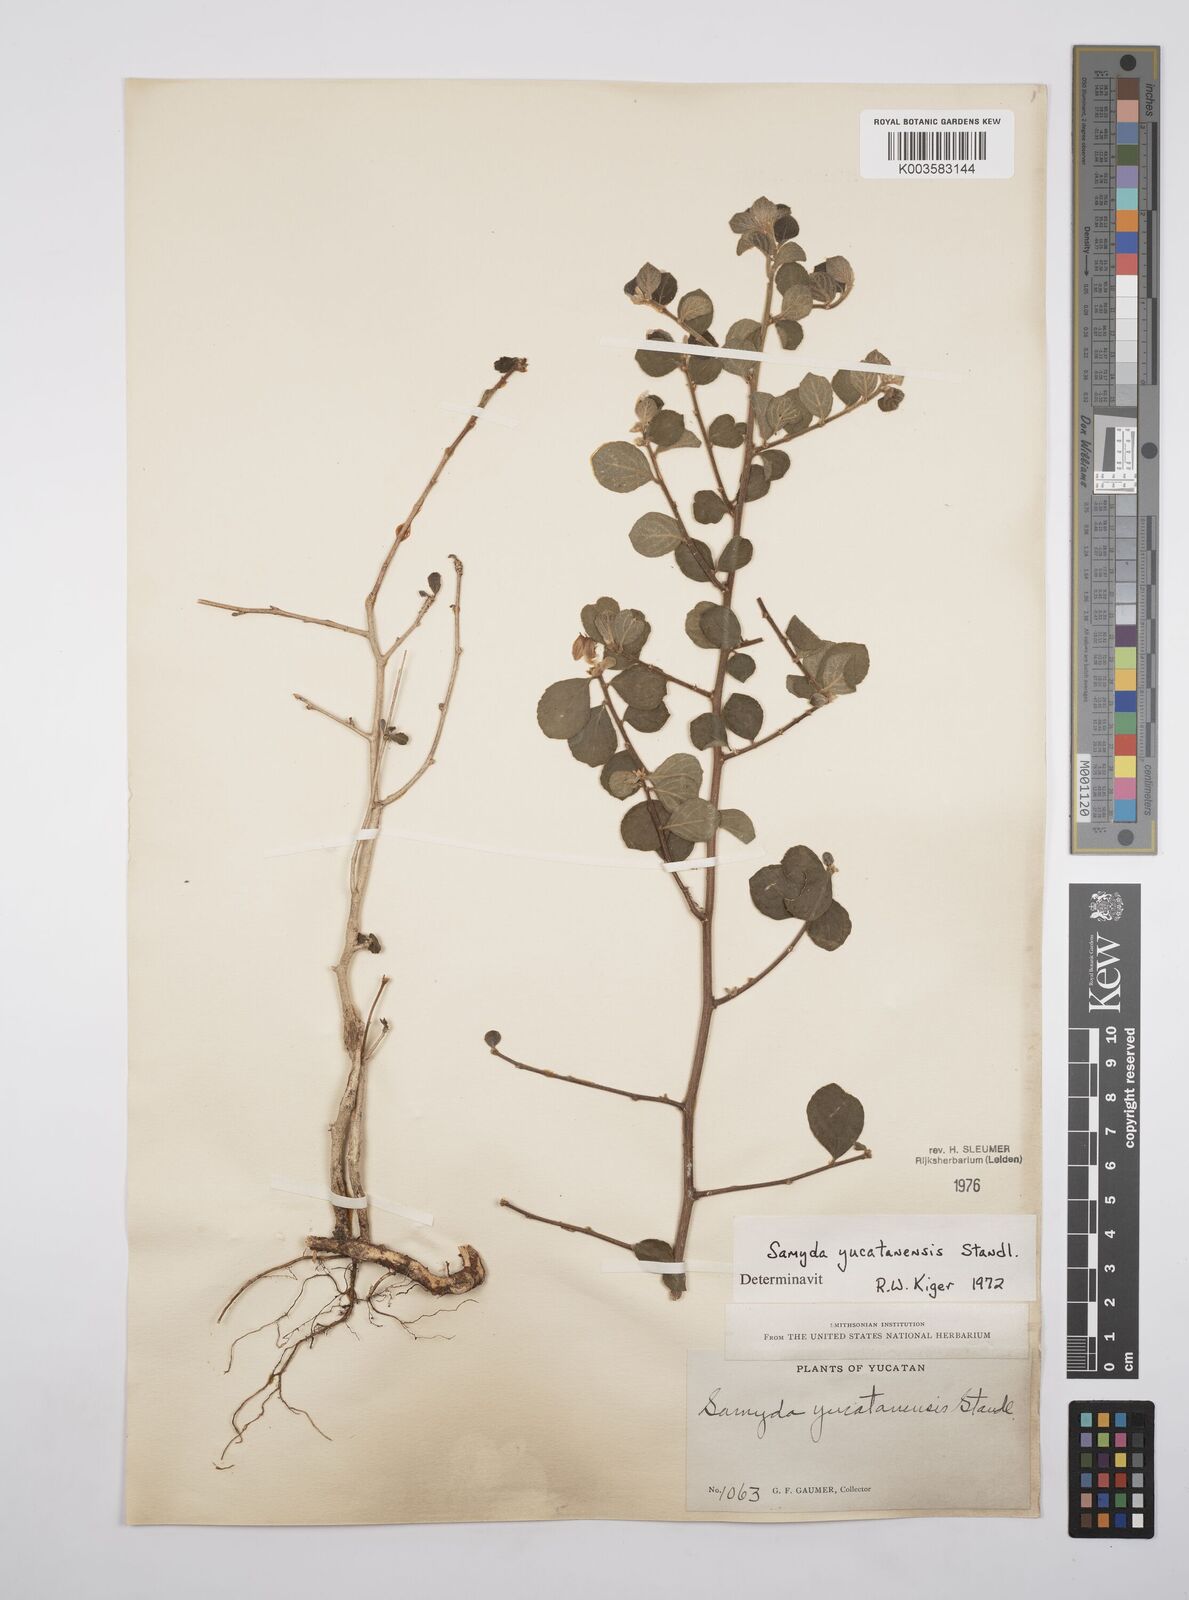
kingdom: Plantae
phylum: Tracheophyta
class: Magnoliopsida
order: Malpighiales
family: Salicaceae
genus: Casearia
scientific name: Casearia yucatanensis
